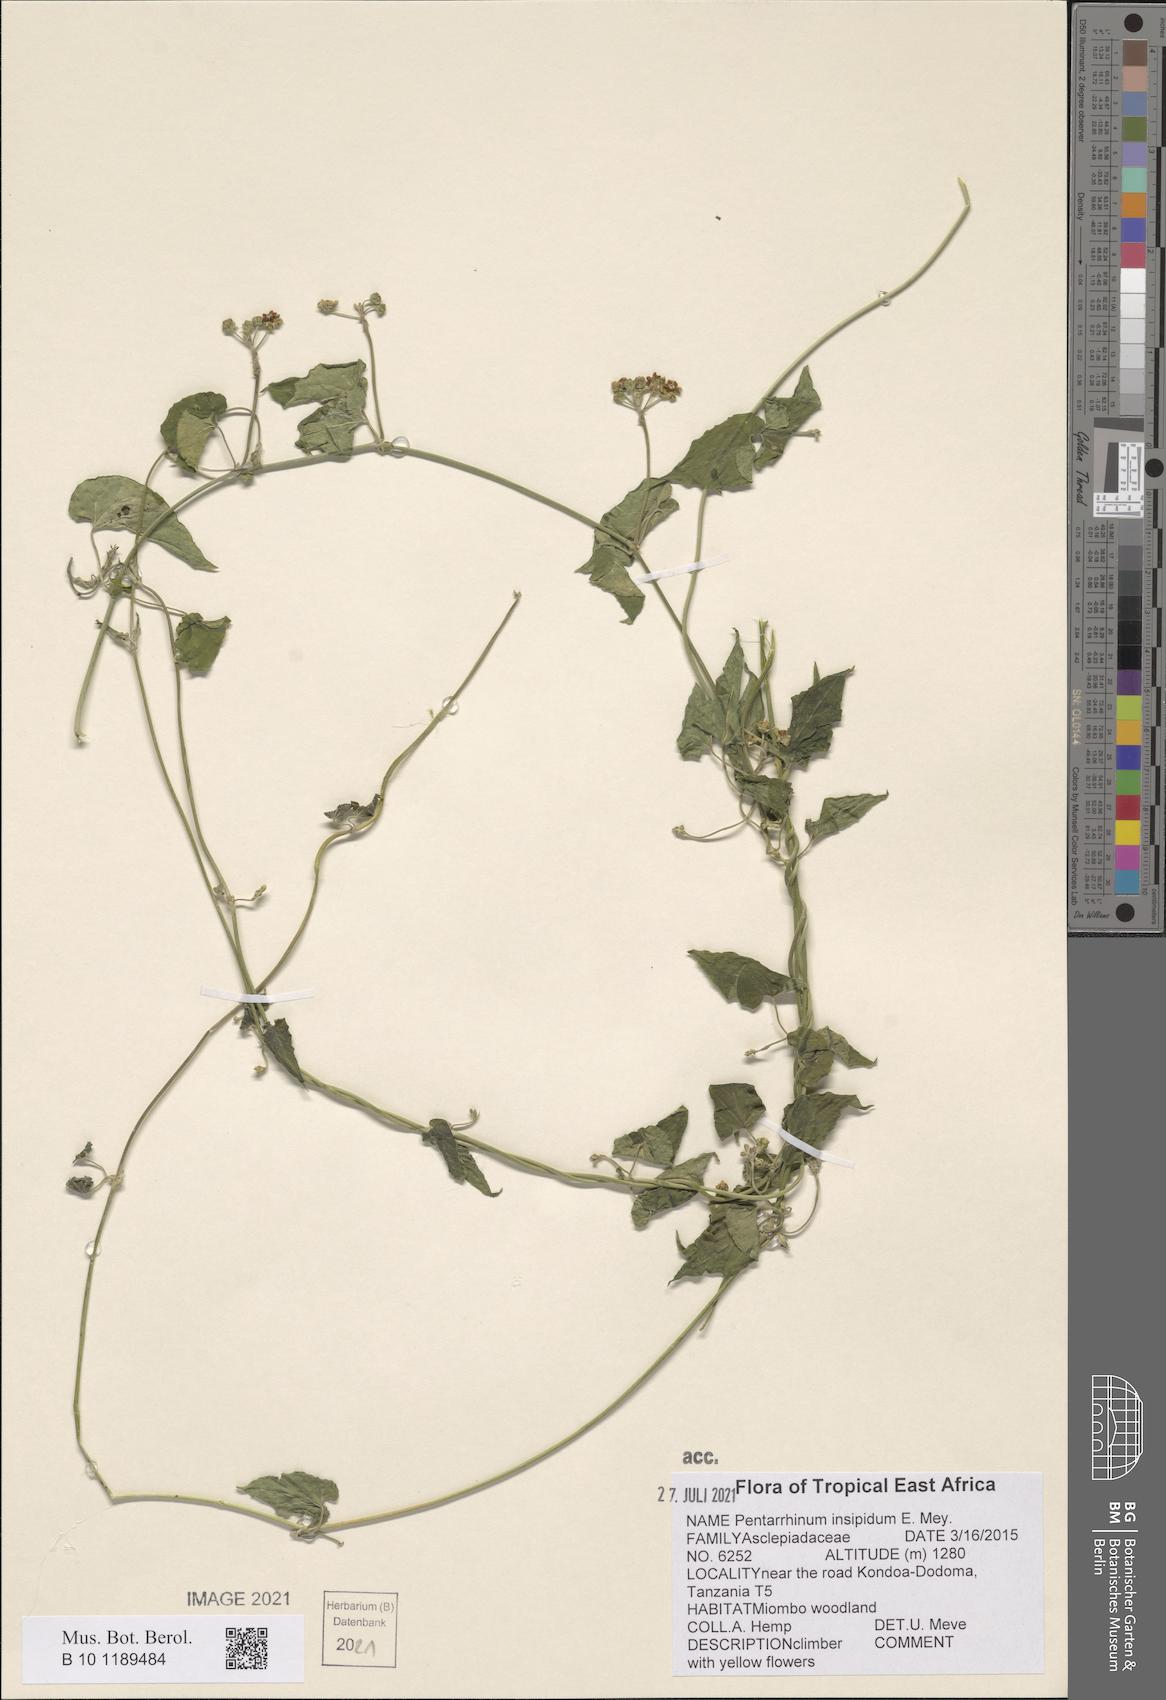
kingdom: Plantae
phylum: Tracheophyta
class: Magnoliopsida
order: Gentianales
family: Apocynaceae
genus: Cynanchum
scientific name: Cynanchum insipidum
